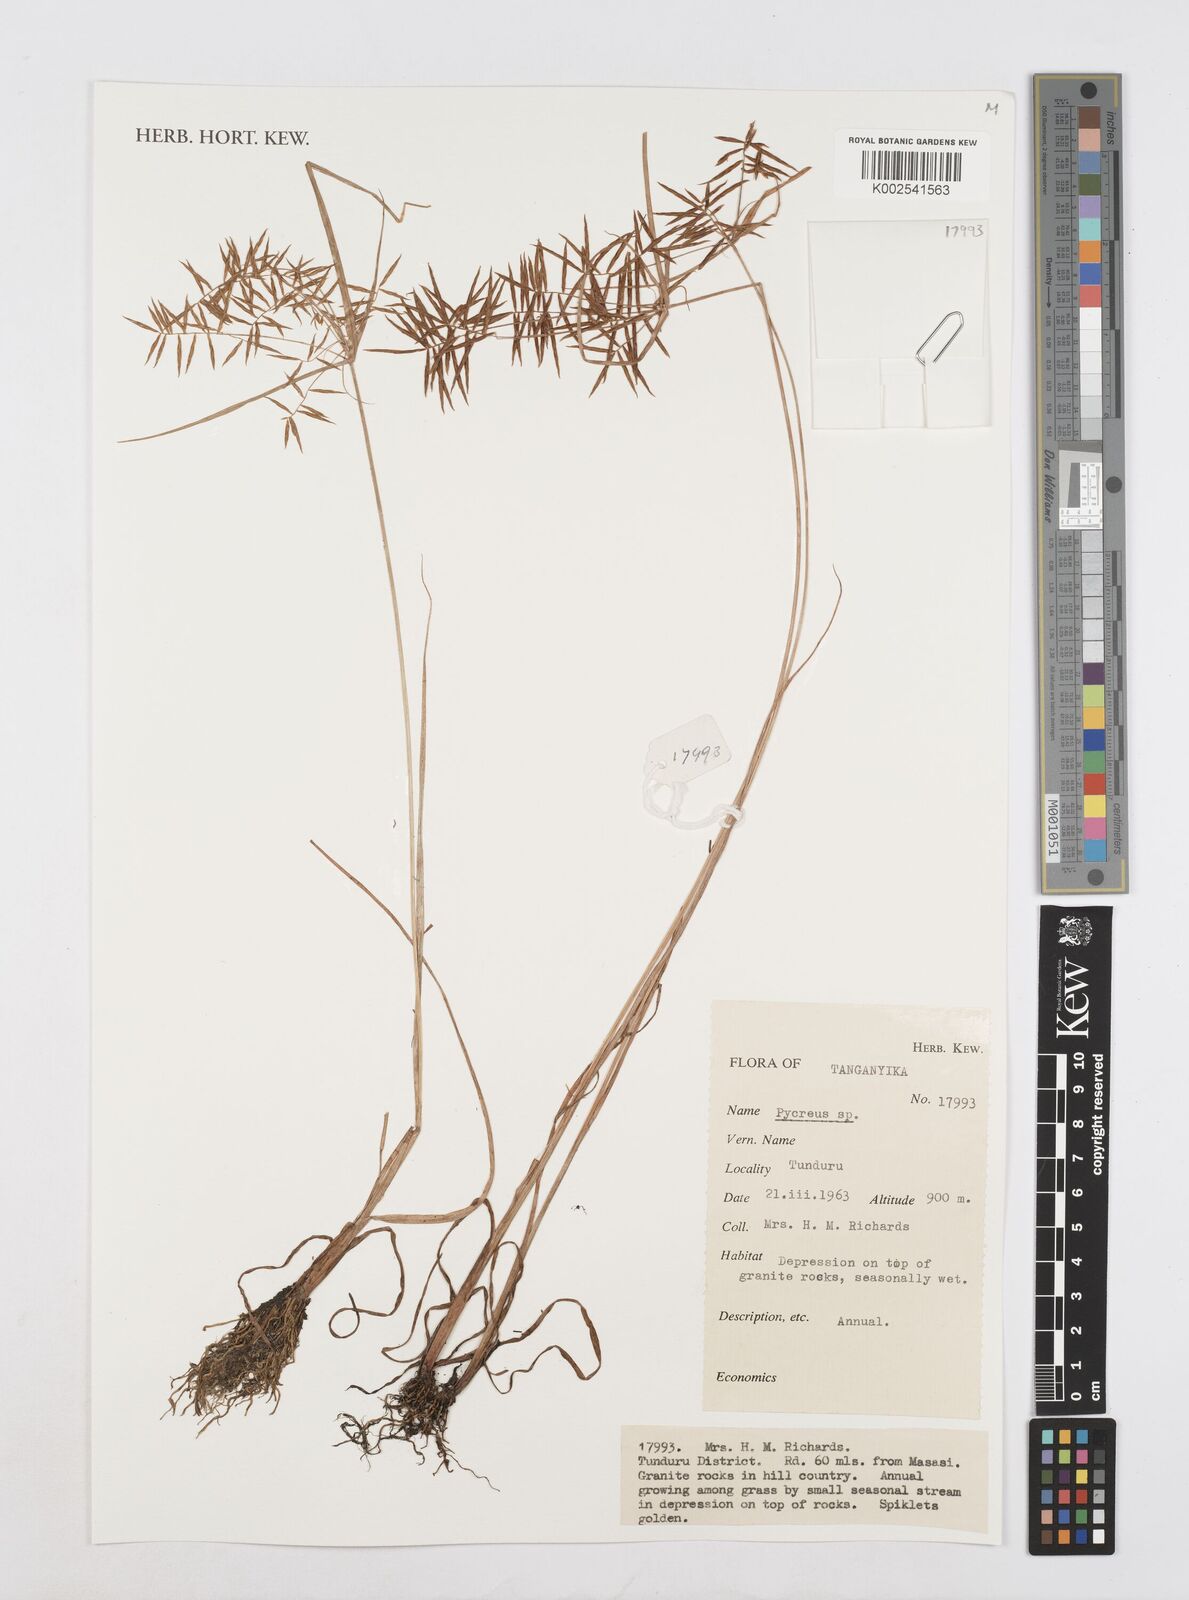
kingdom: Plantae
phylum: Tracheophyta
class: Liliopsida
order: Poales
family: Cyperaceae
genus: Cyperus
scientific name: Cyperus intactus
